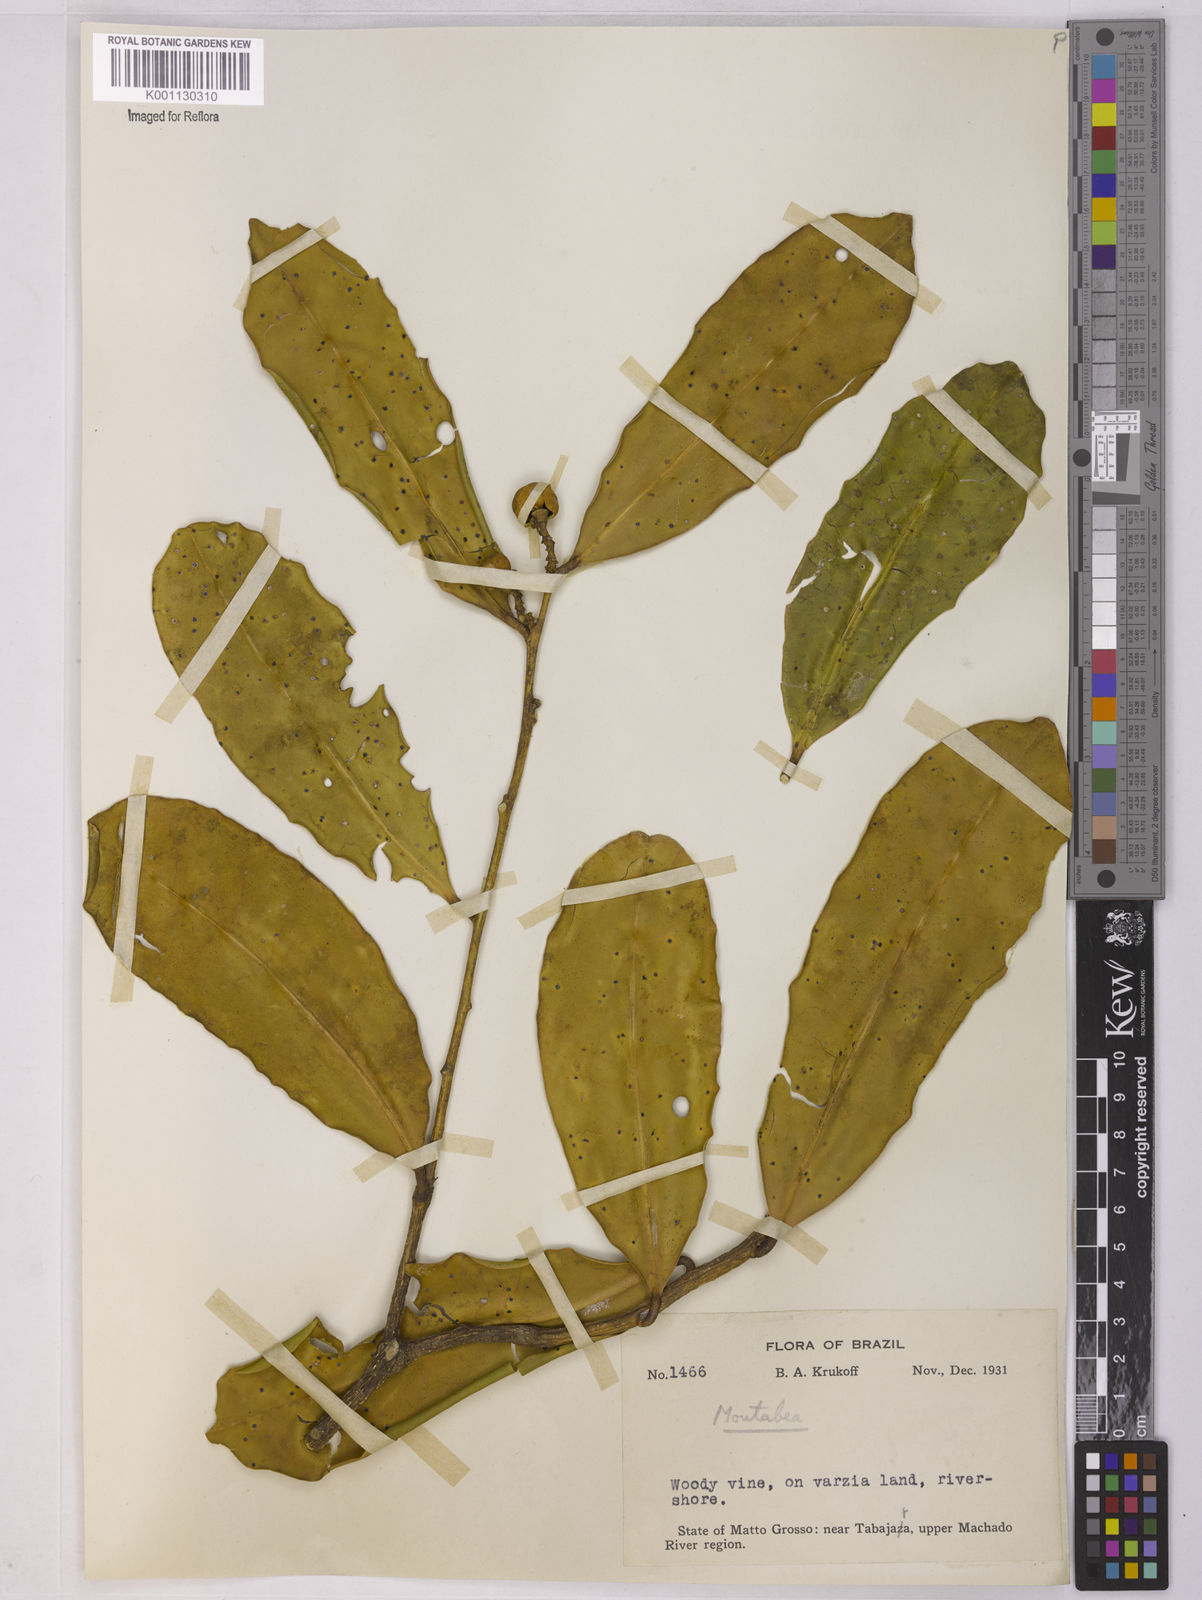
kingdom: Plantae
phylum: Tracheophyta
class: Magnoliopsida
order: Fabales
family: Polygalaceae
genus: Moutabea
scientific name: Moutabea
